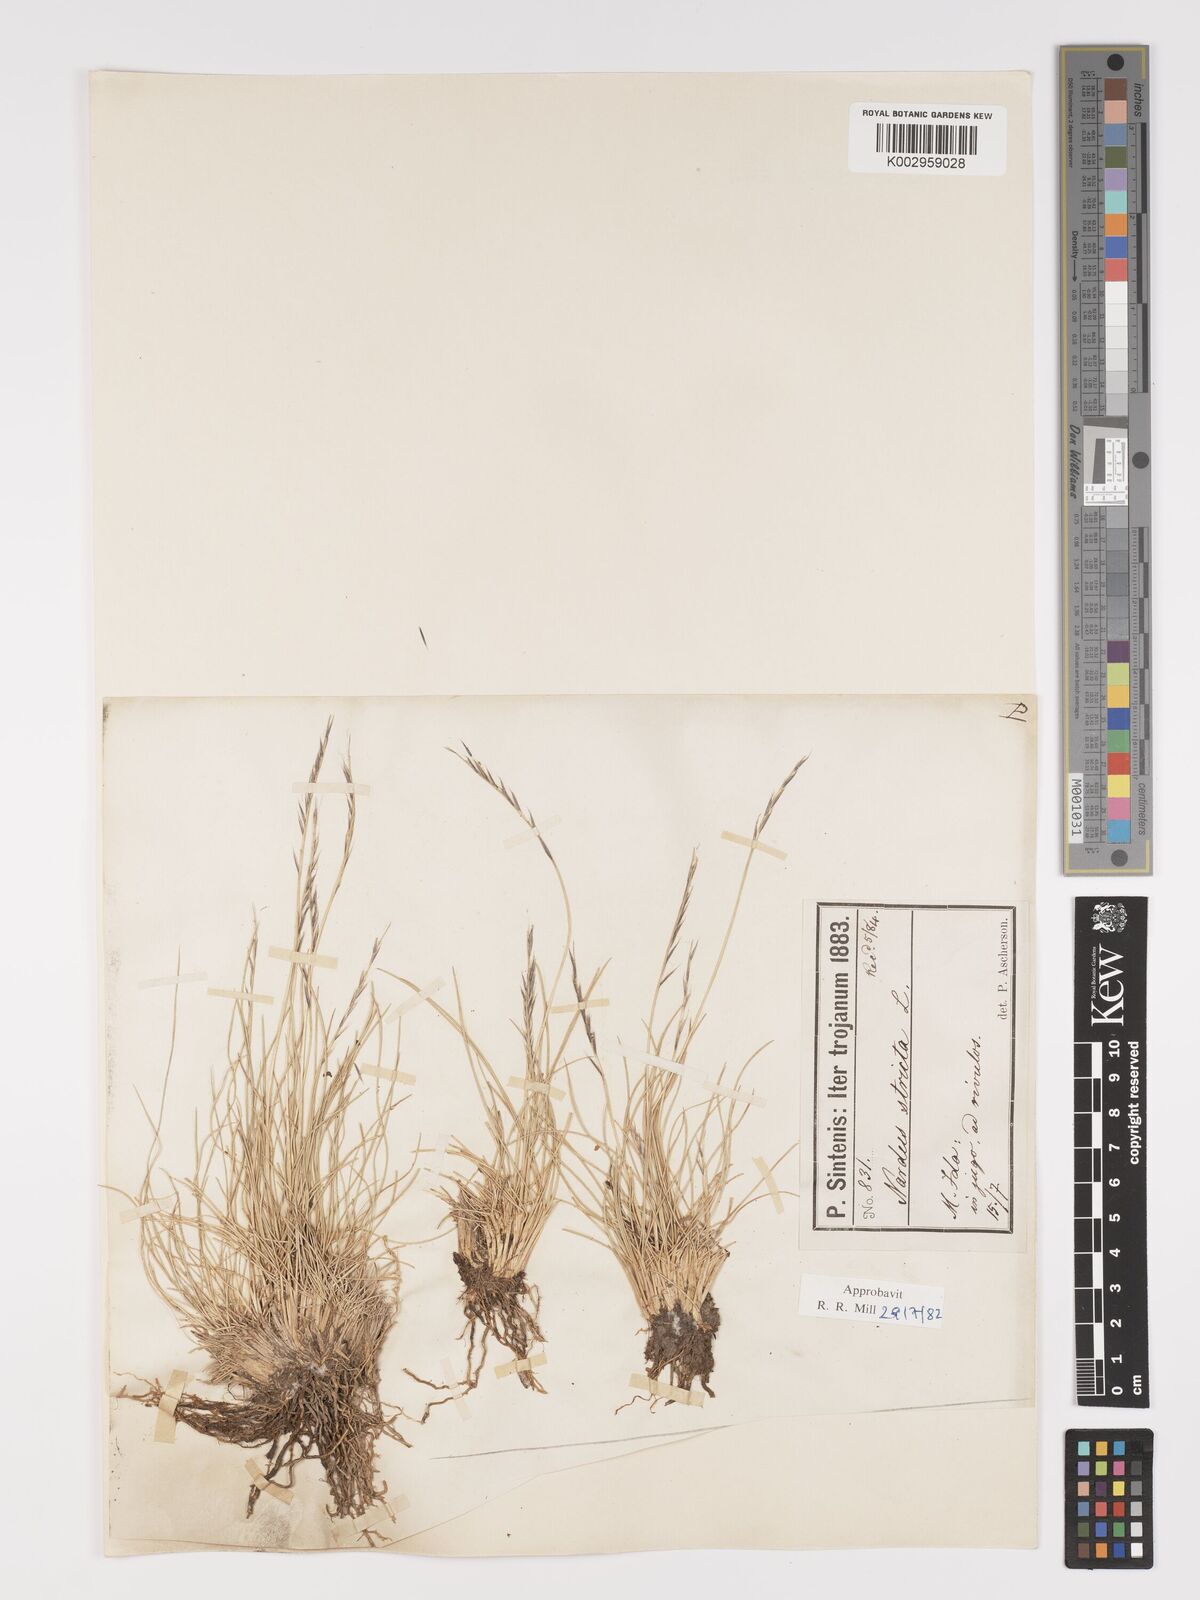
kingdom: Plantae
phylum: Tracheophyta
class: Liliopsida
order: Poales
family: Poaceae
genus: Nardus
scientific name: Nardus stricta
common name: Mat-grass
